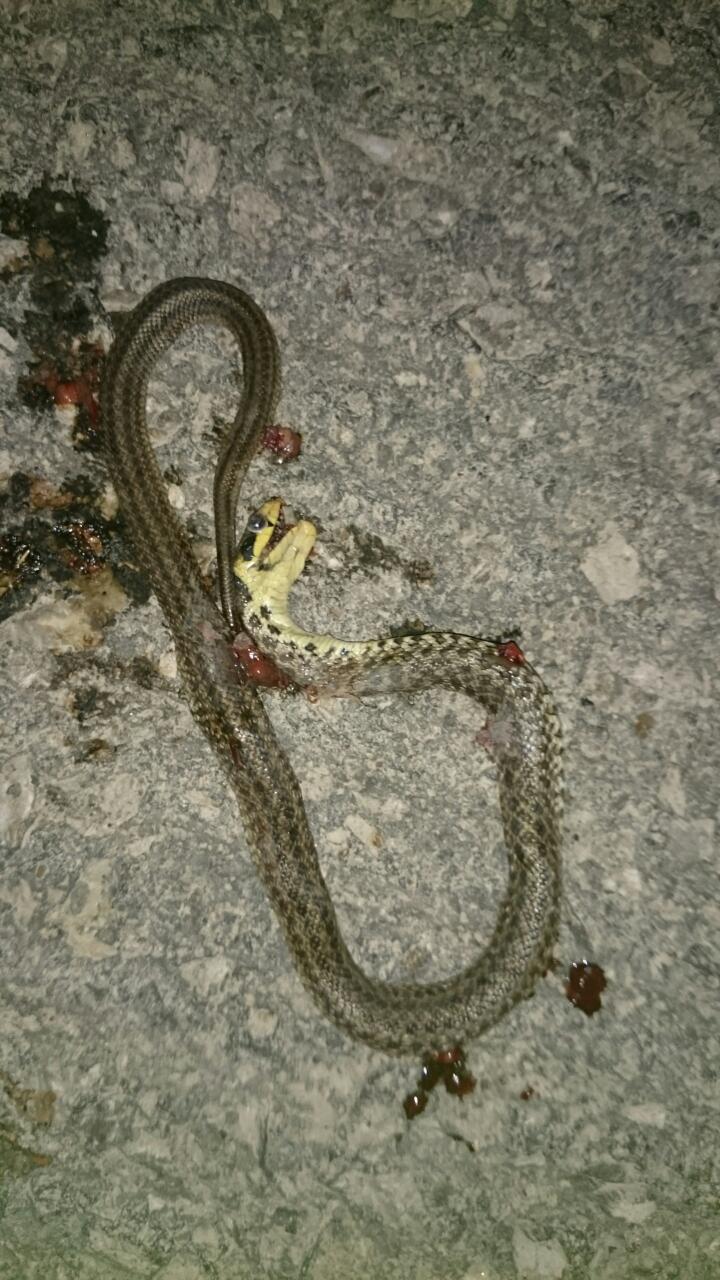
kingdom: Animalia
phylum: Chordata
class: Squamata
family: Colubridae
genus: Zamenis
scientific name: Zamenis longissimus
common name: Aesculapean snake
